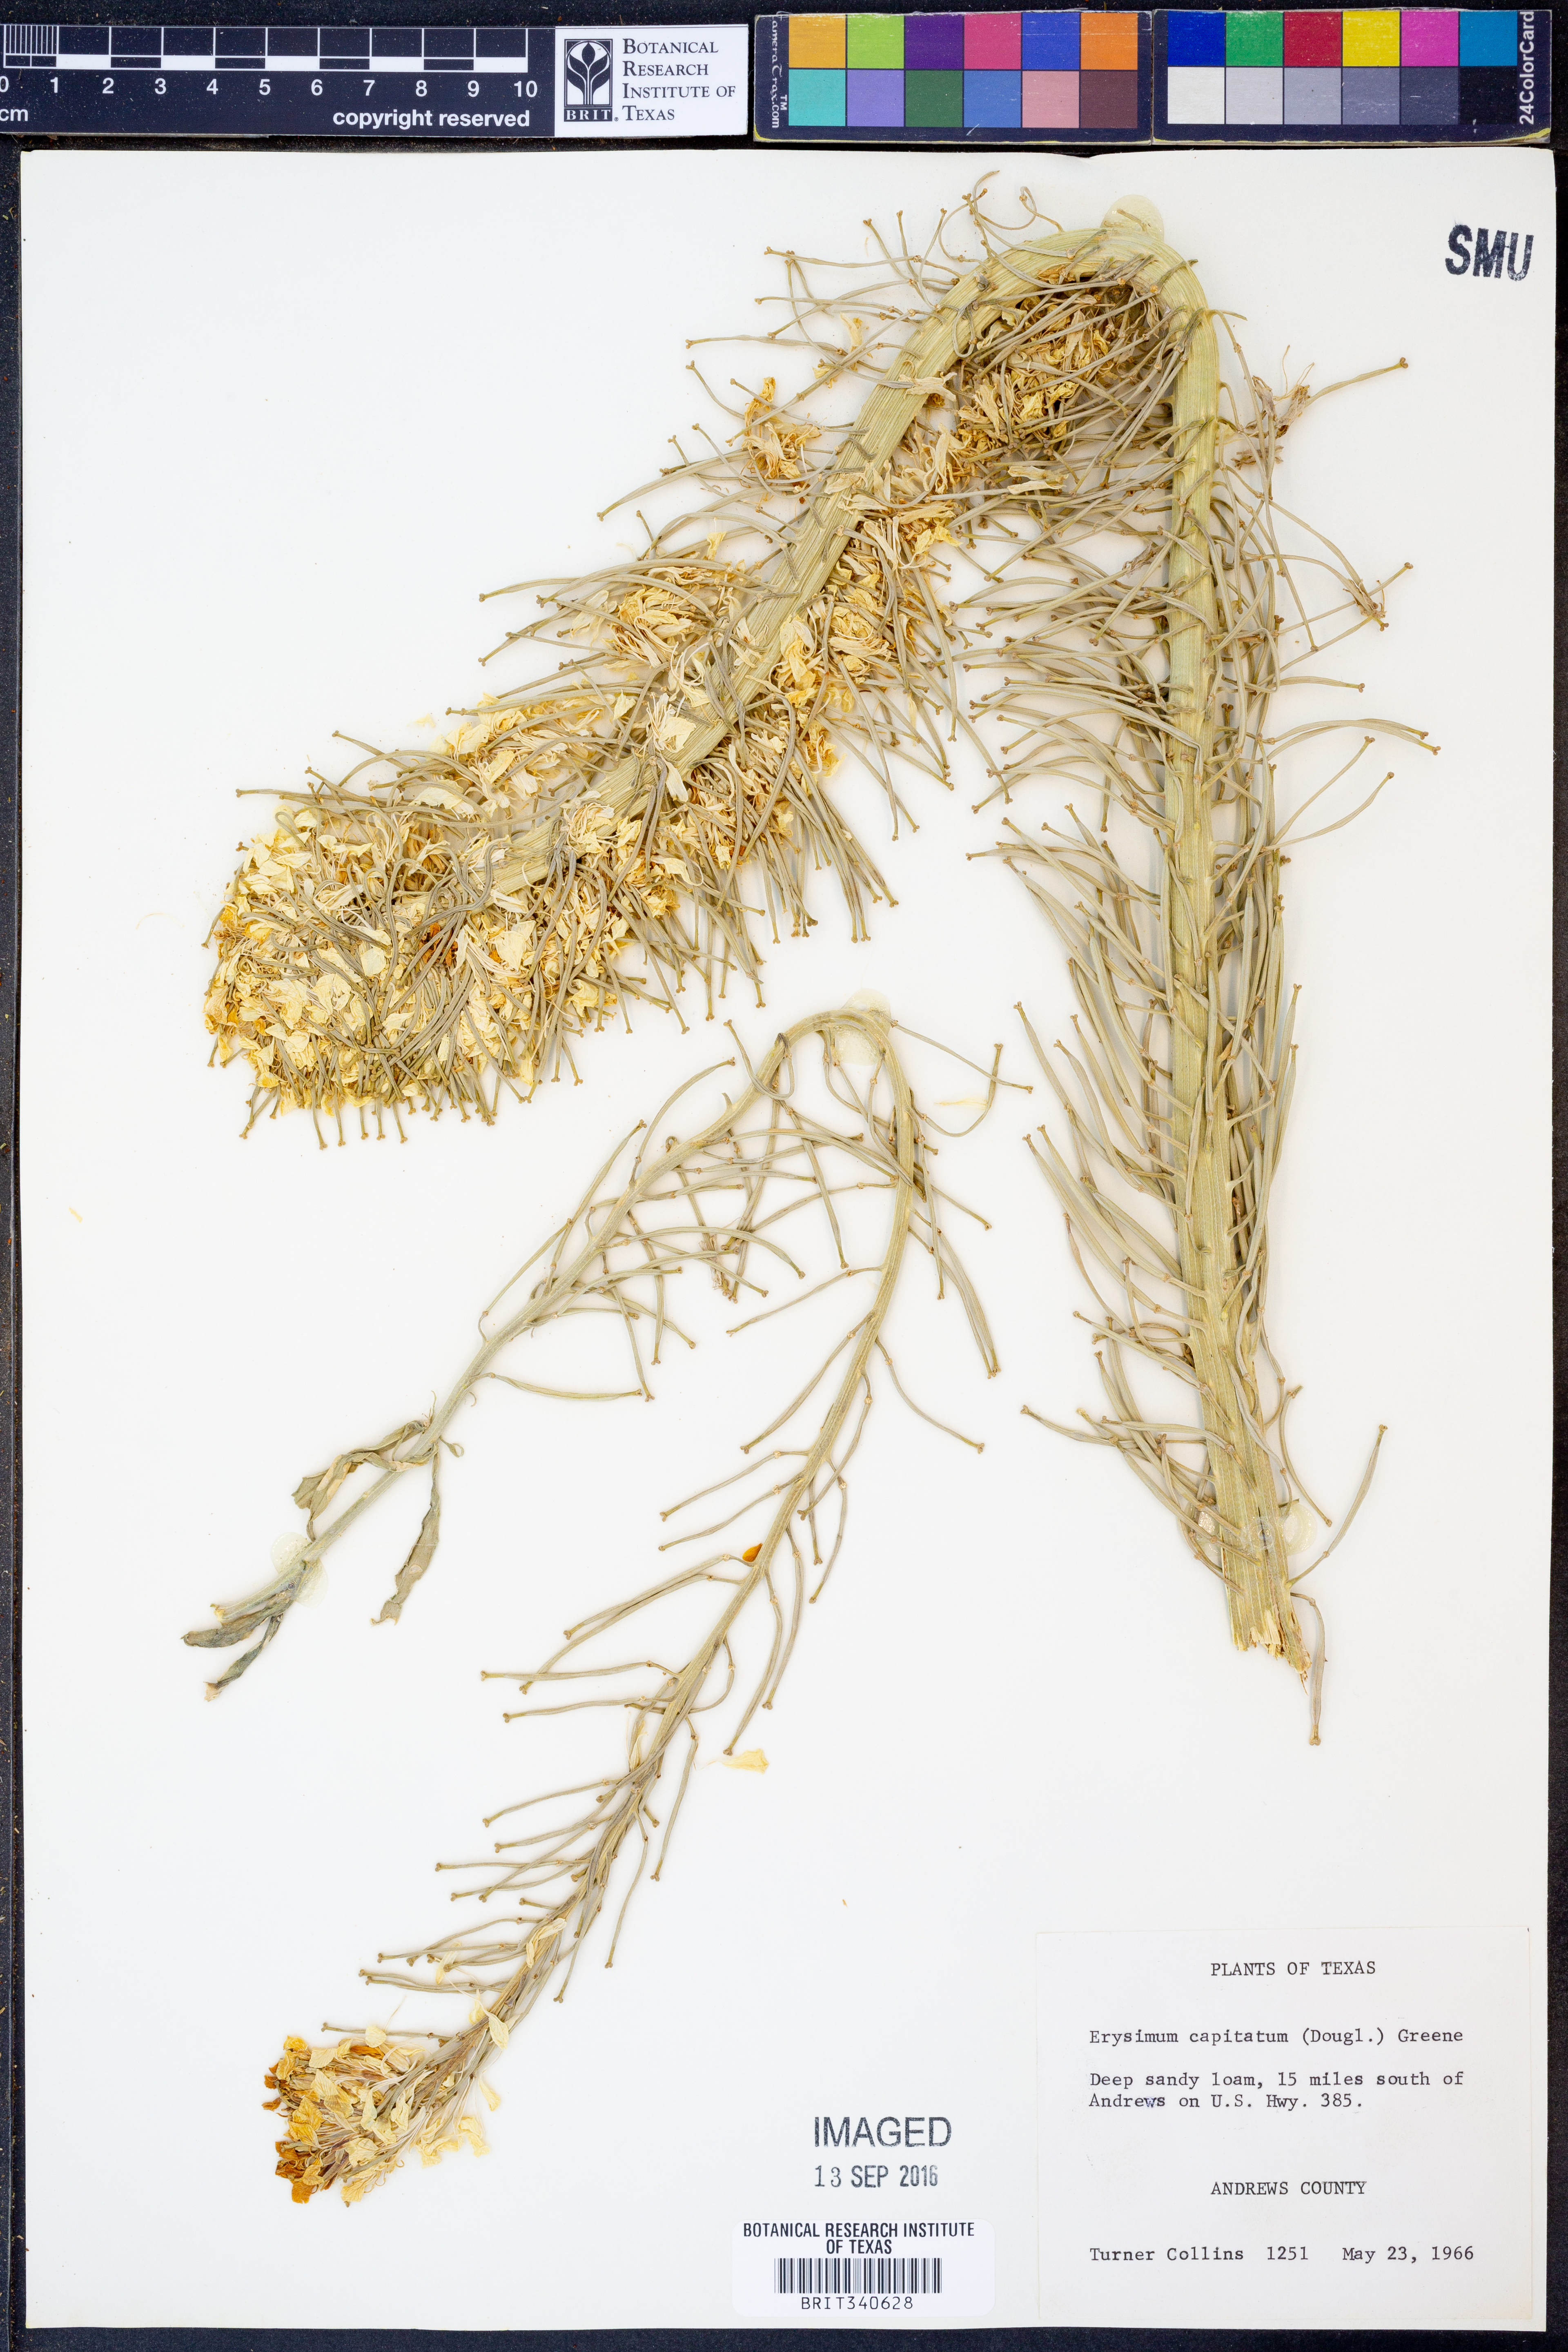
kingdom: Plantae
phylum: Tracheophyta
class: Magnoliopsida
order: Brassicales
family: Brassicaceae
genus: Erysimum
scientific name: Erysimum capitatum
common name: Western wallflower
